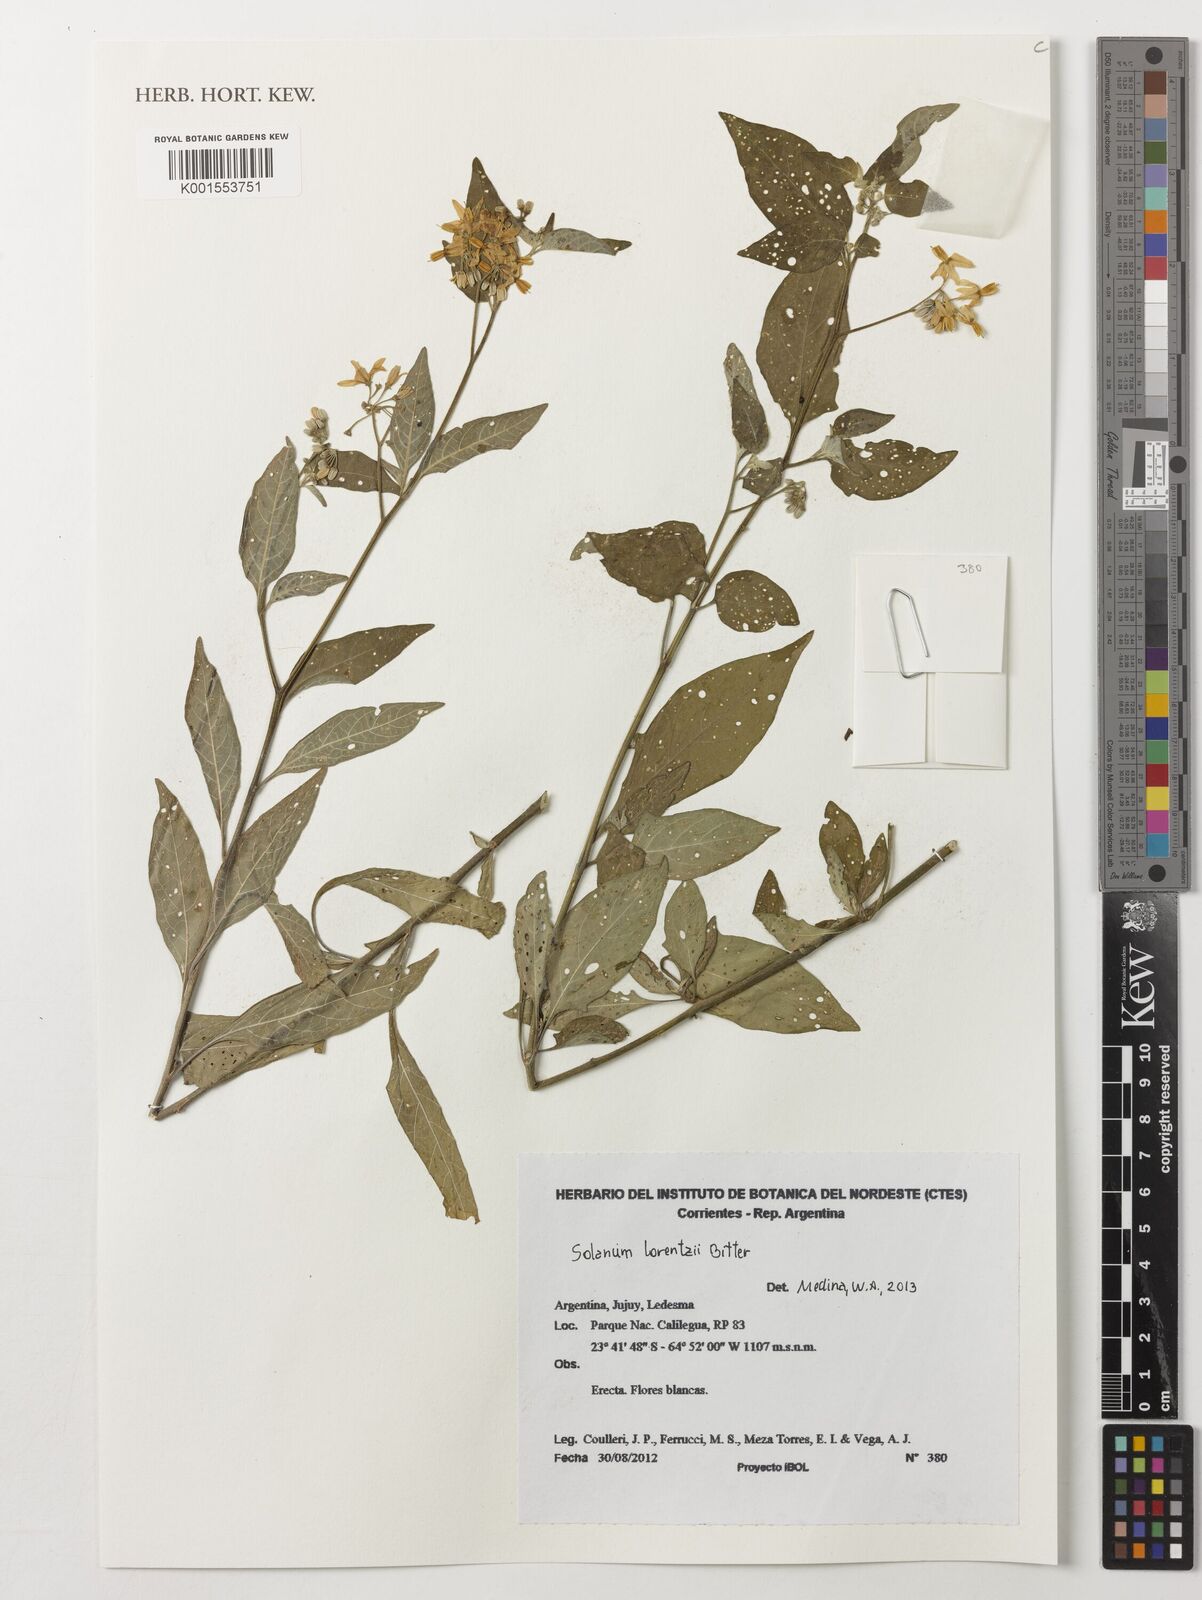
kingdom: Plantae
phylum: Tracheophyta
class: Magnoliopsida
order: Solanales
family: Solanaceae
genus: Solanum
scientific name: Solanum aloysiifolium
